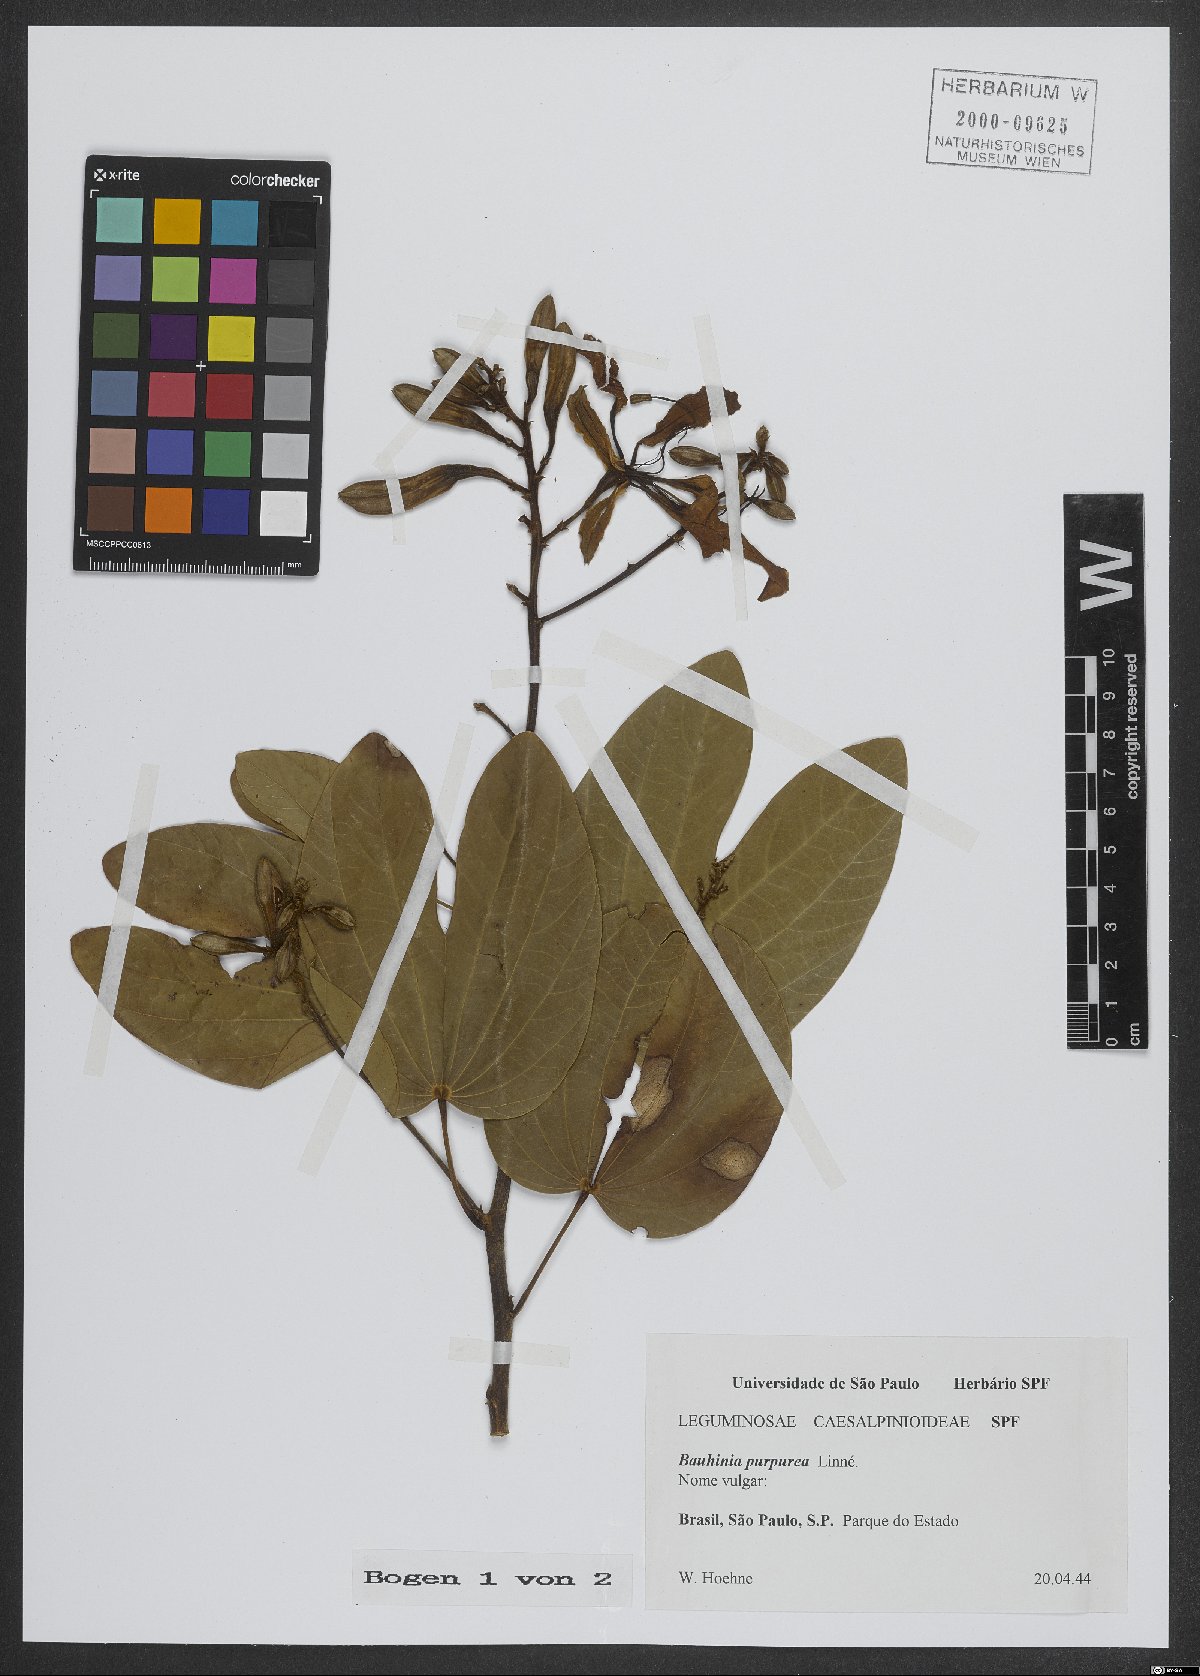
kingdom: Plantae
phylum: Tracheophyta
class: Magnoliopsida
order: Fabales
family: Fabaceae
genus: Bauhinia
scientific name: Bauhinia purpurea
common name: Butterfly-tree
